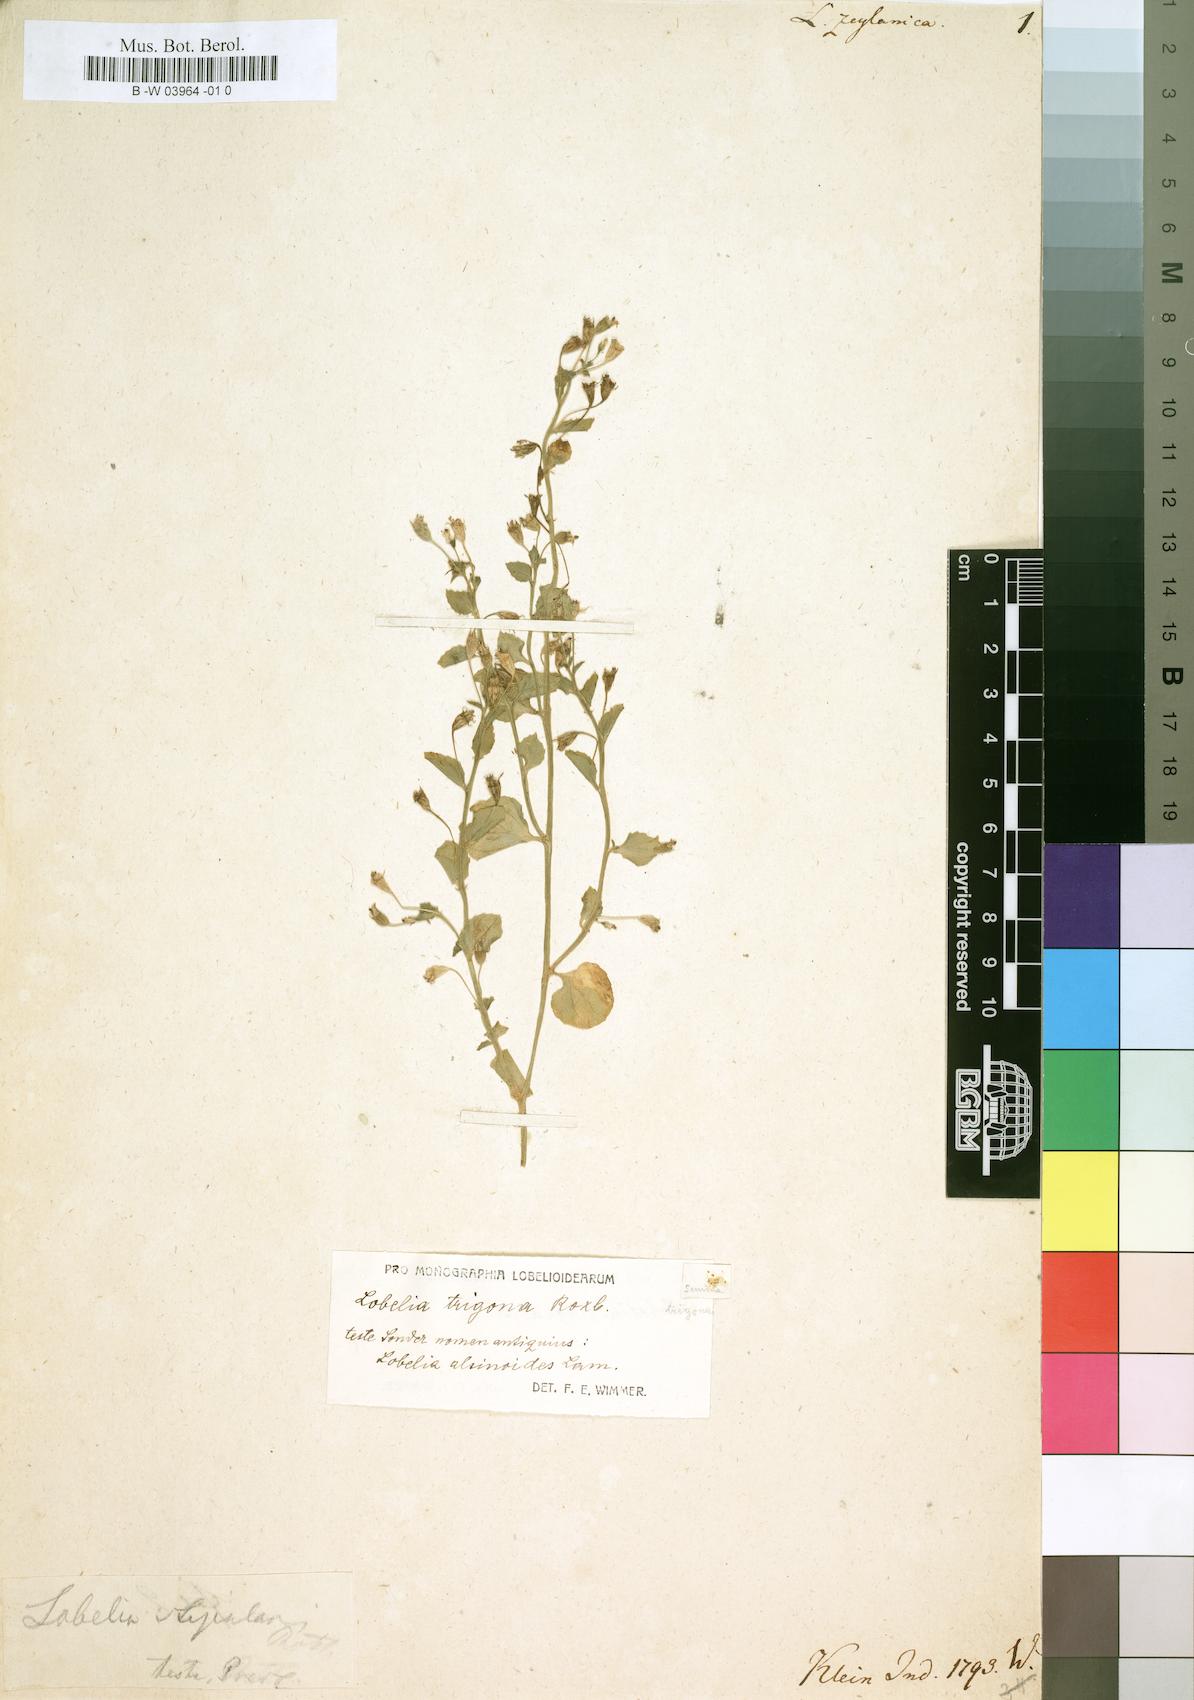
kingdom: Plantae
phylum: Tracheophyta
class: Magnoliopsida
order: Asterales
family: Campanulaceae
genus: Lobelia
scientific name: Lobelia zeylanica
